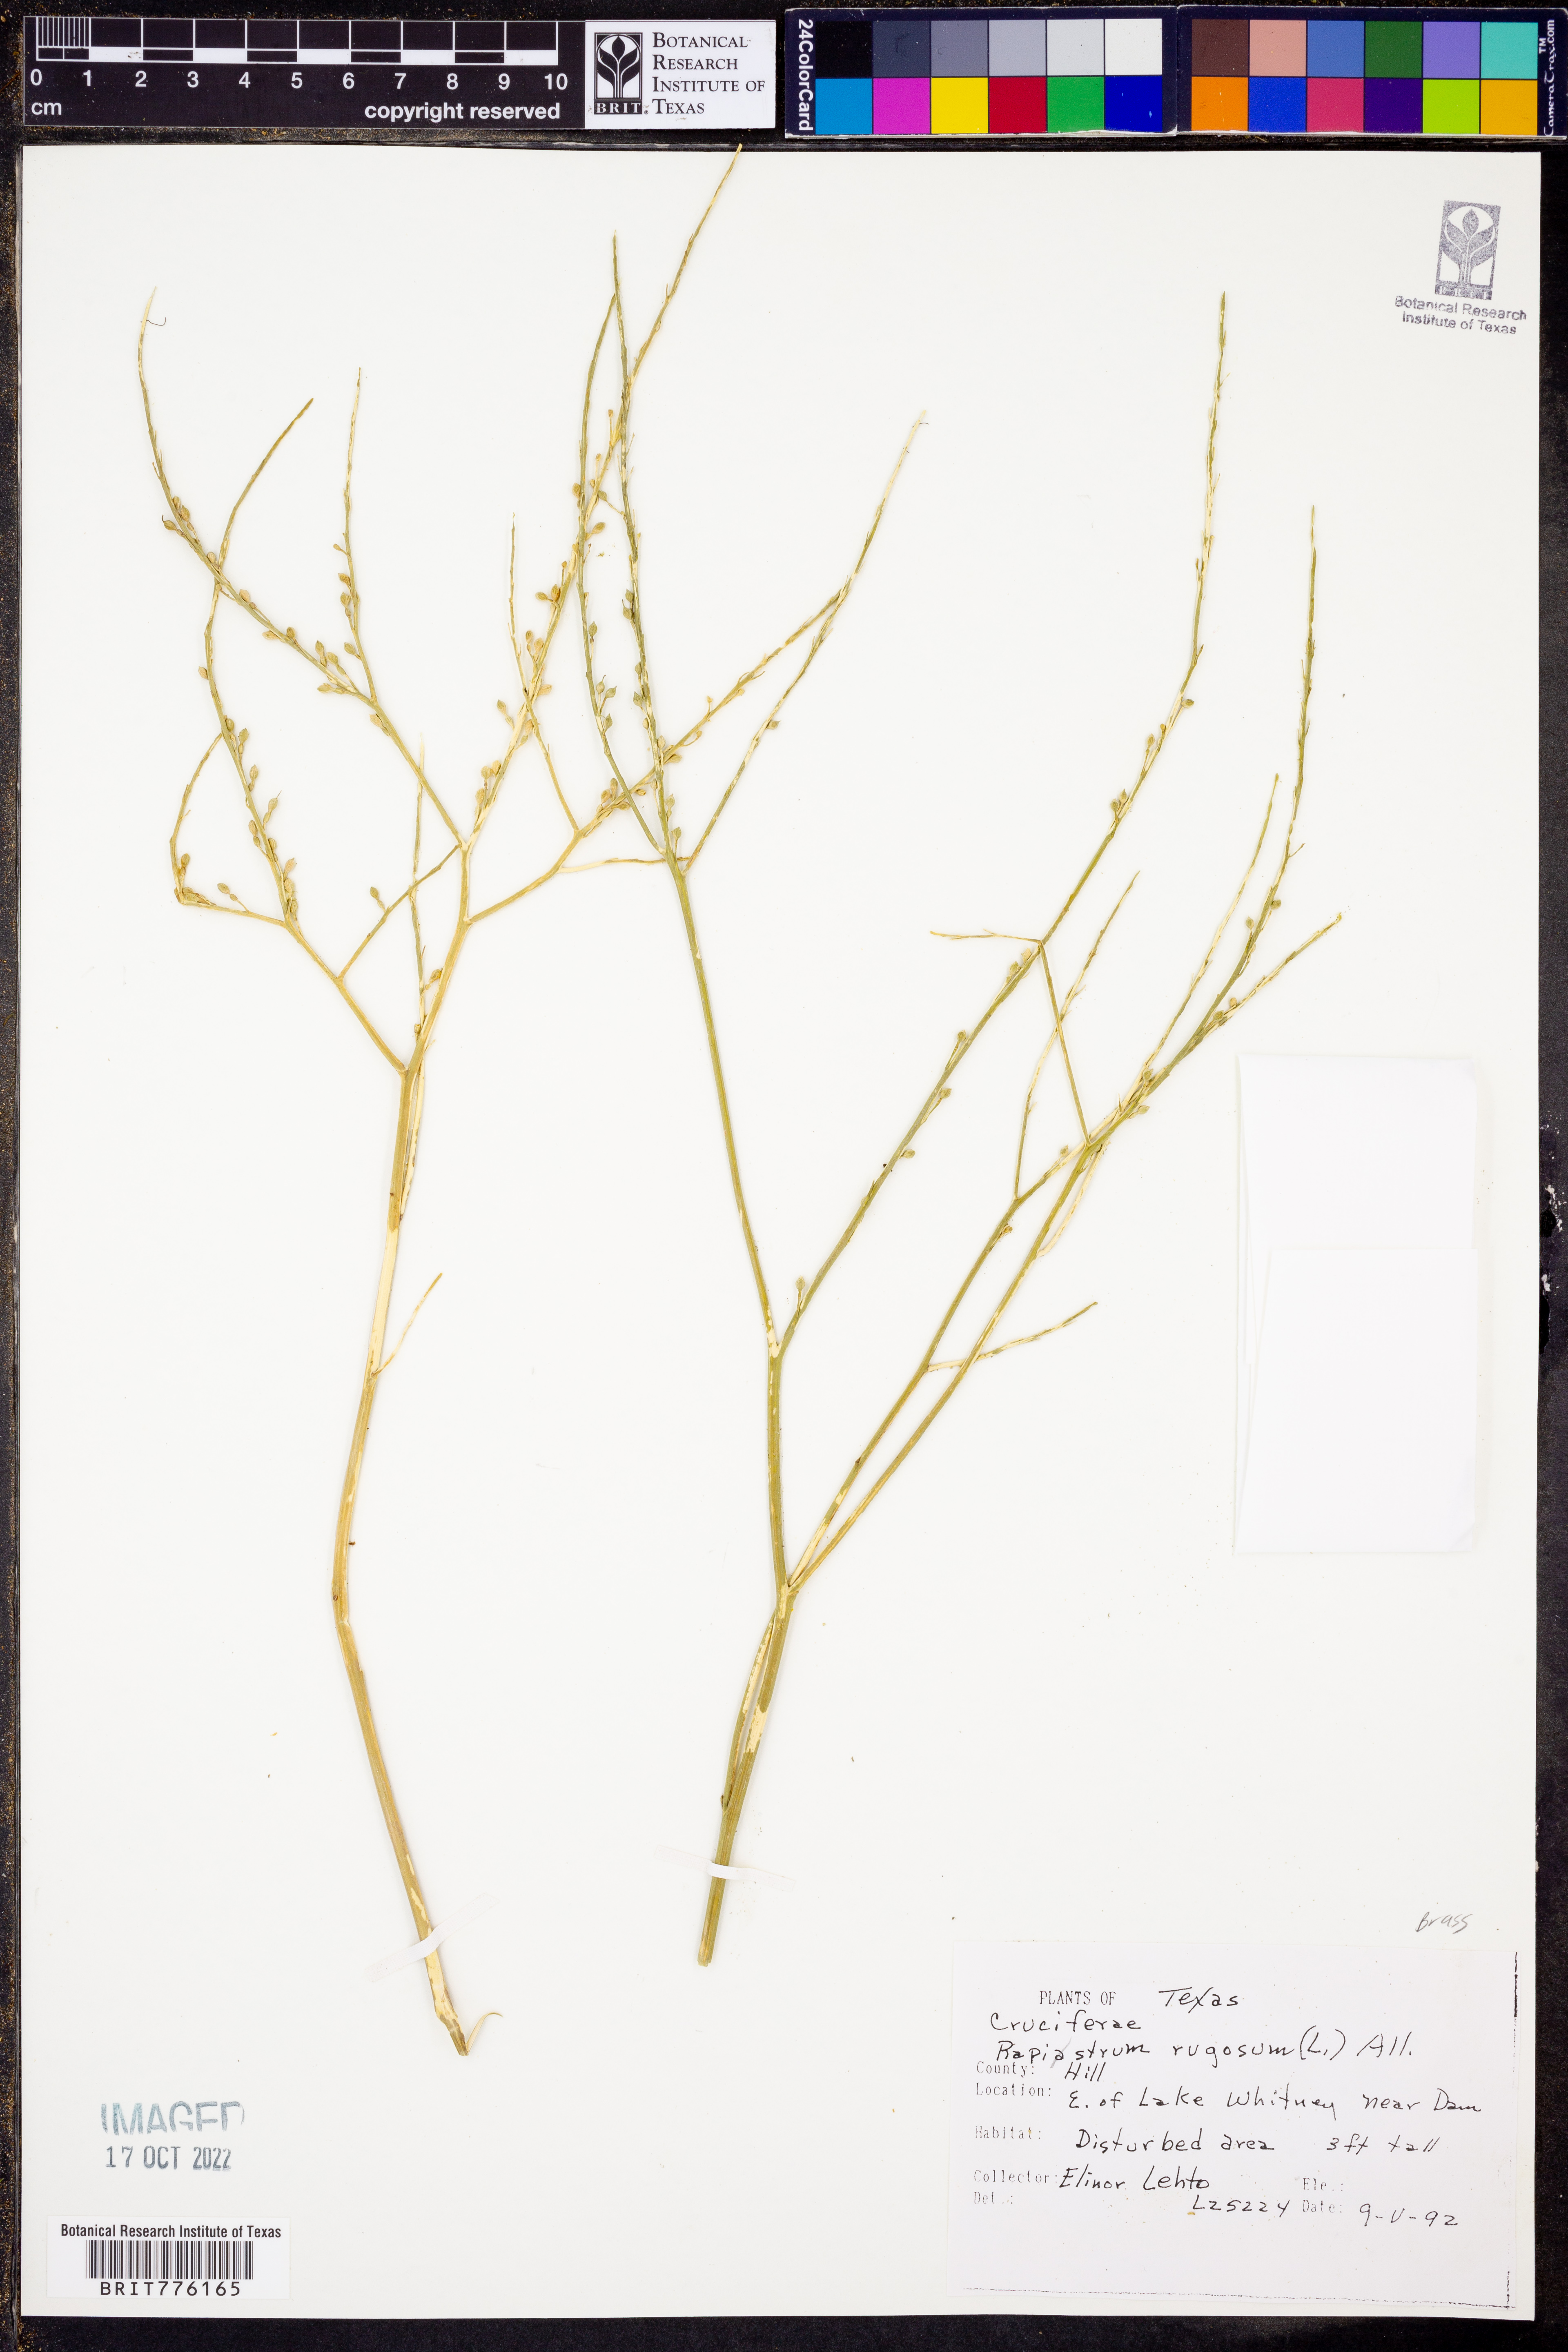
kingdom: Plantae
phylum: Tracheophyta
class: Magnoliopsida
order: Brassicales
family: Brassicaceae
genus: Rapistrum
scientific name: Rapistrum rugosum
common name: Annual bastardcabbage
